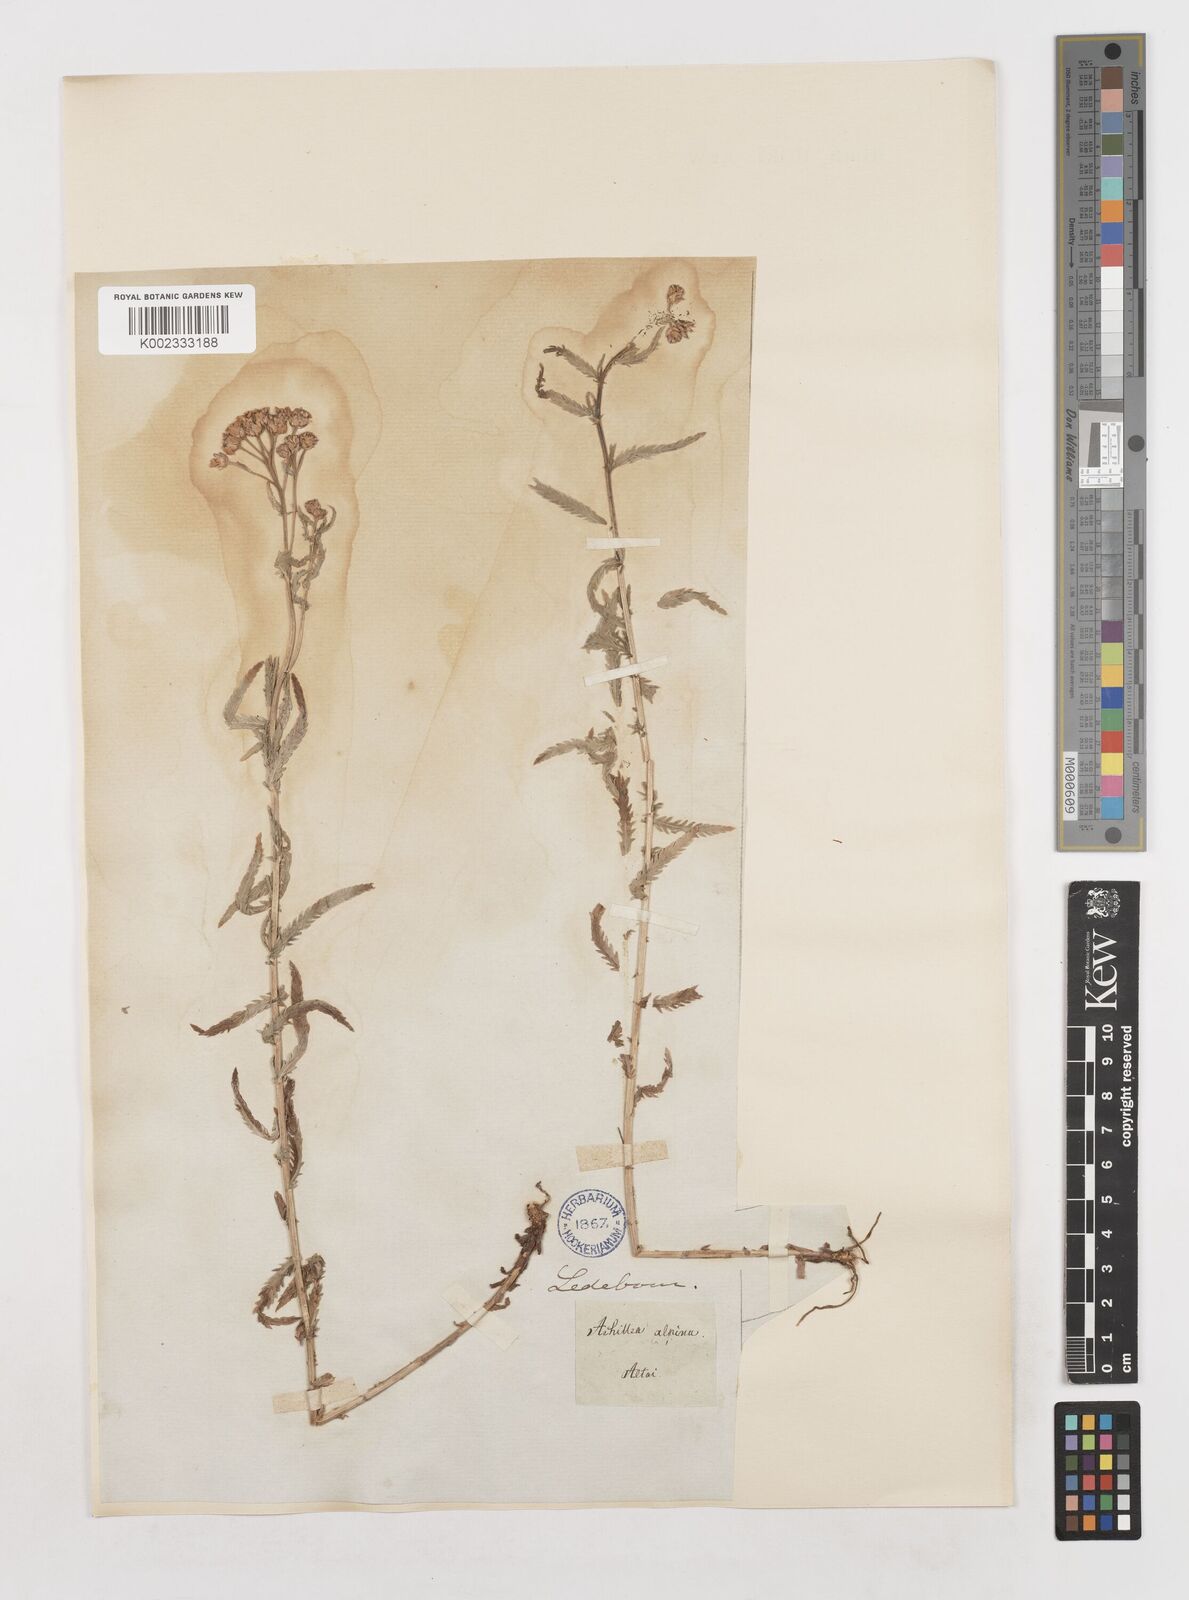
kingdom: Plantae
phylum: Tracheophyta
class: Magnoliopsida
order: Asterales
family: Asteraceae
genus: Achillea
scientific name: Achillea millefolium
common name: Yarrow
